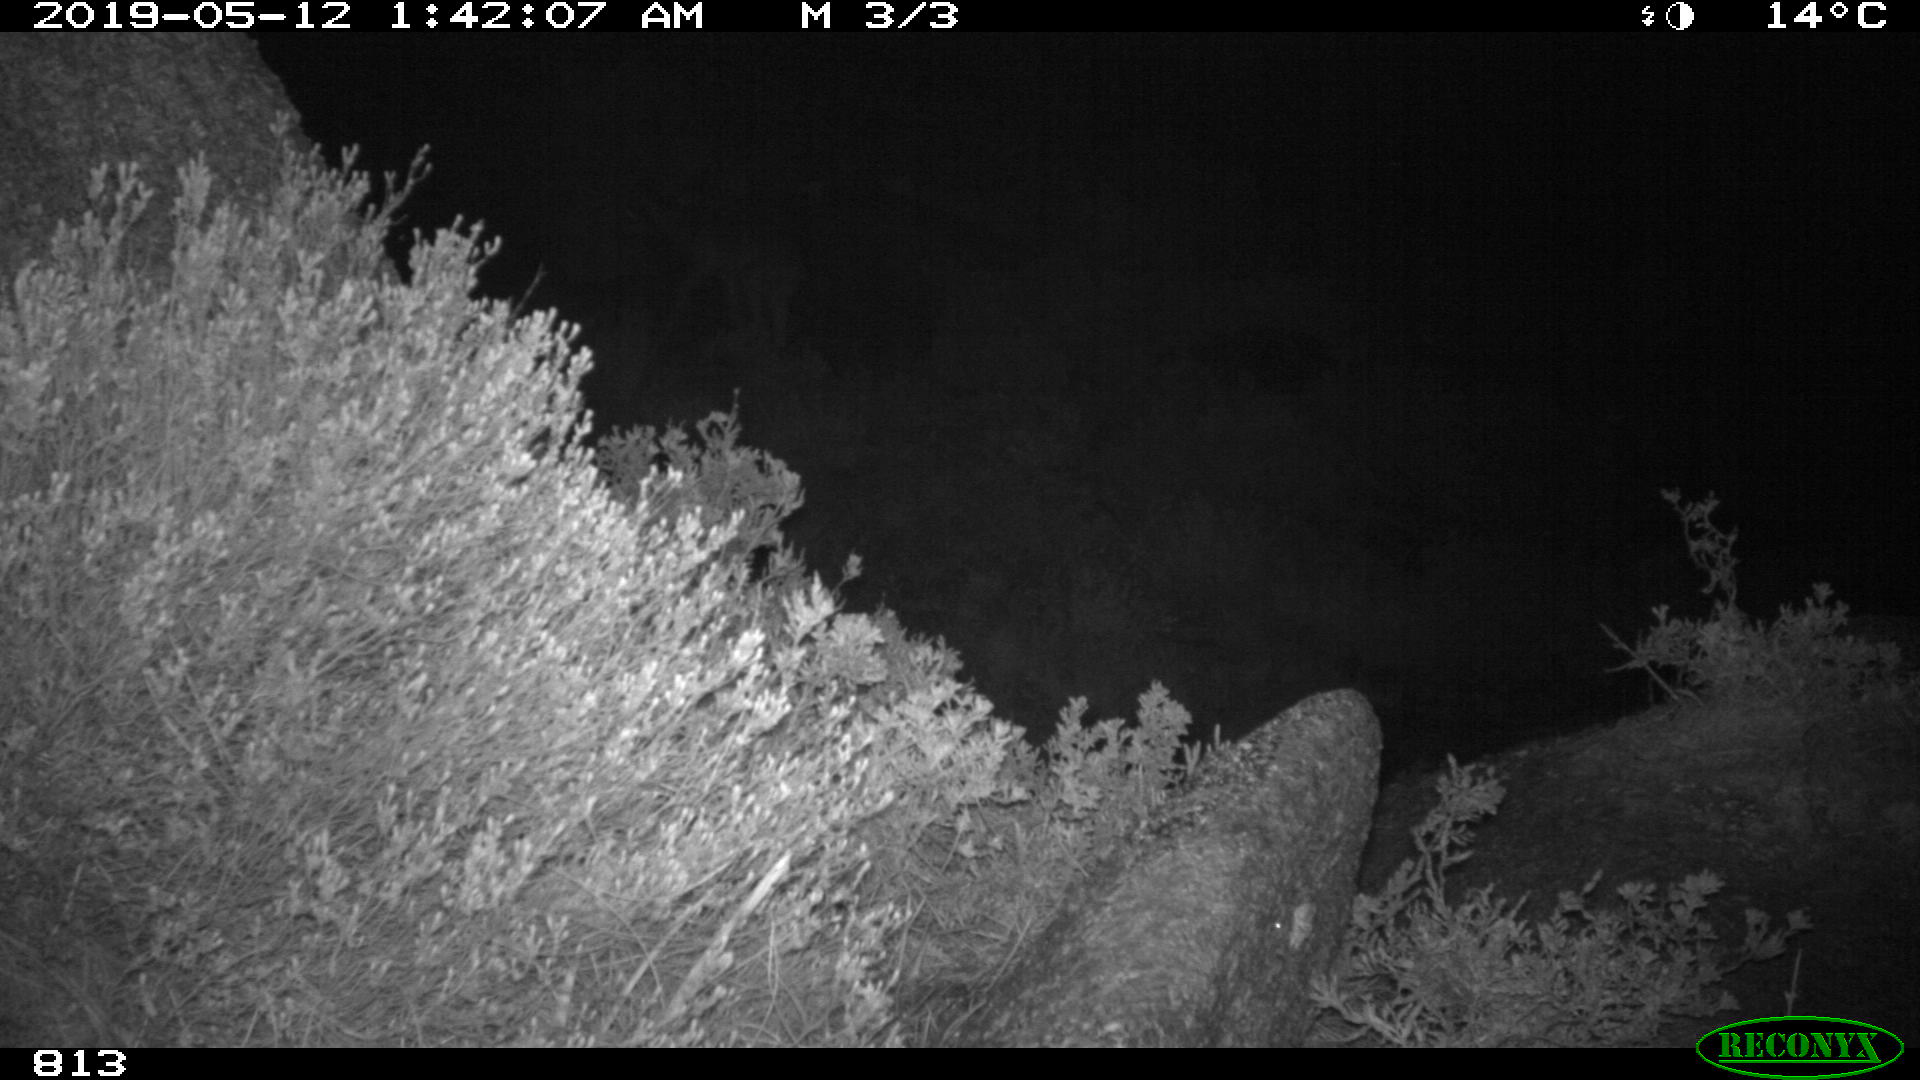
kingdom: Animalia
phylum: Chordata
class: Mammalia
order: Carnivora
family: Canidae
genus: Canis
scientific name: Canis lupus
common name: Gray wolf
